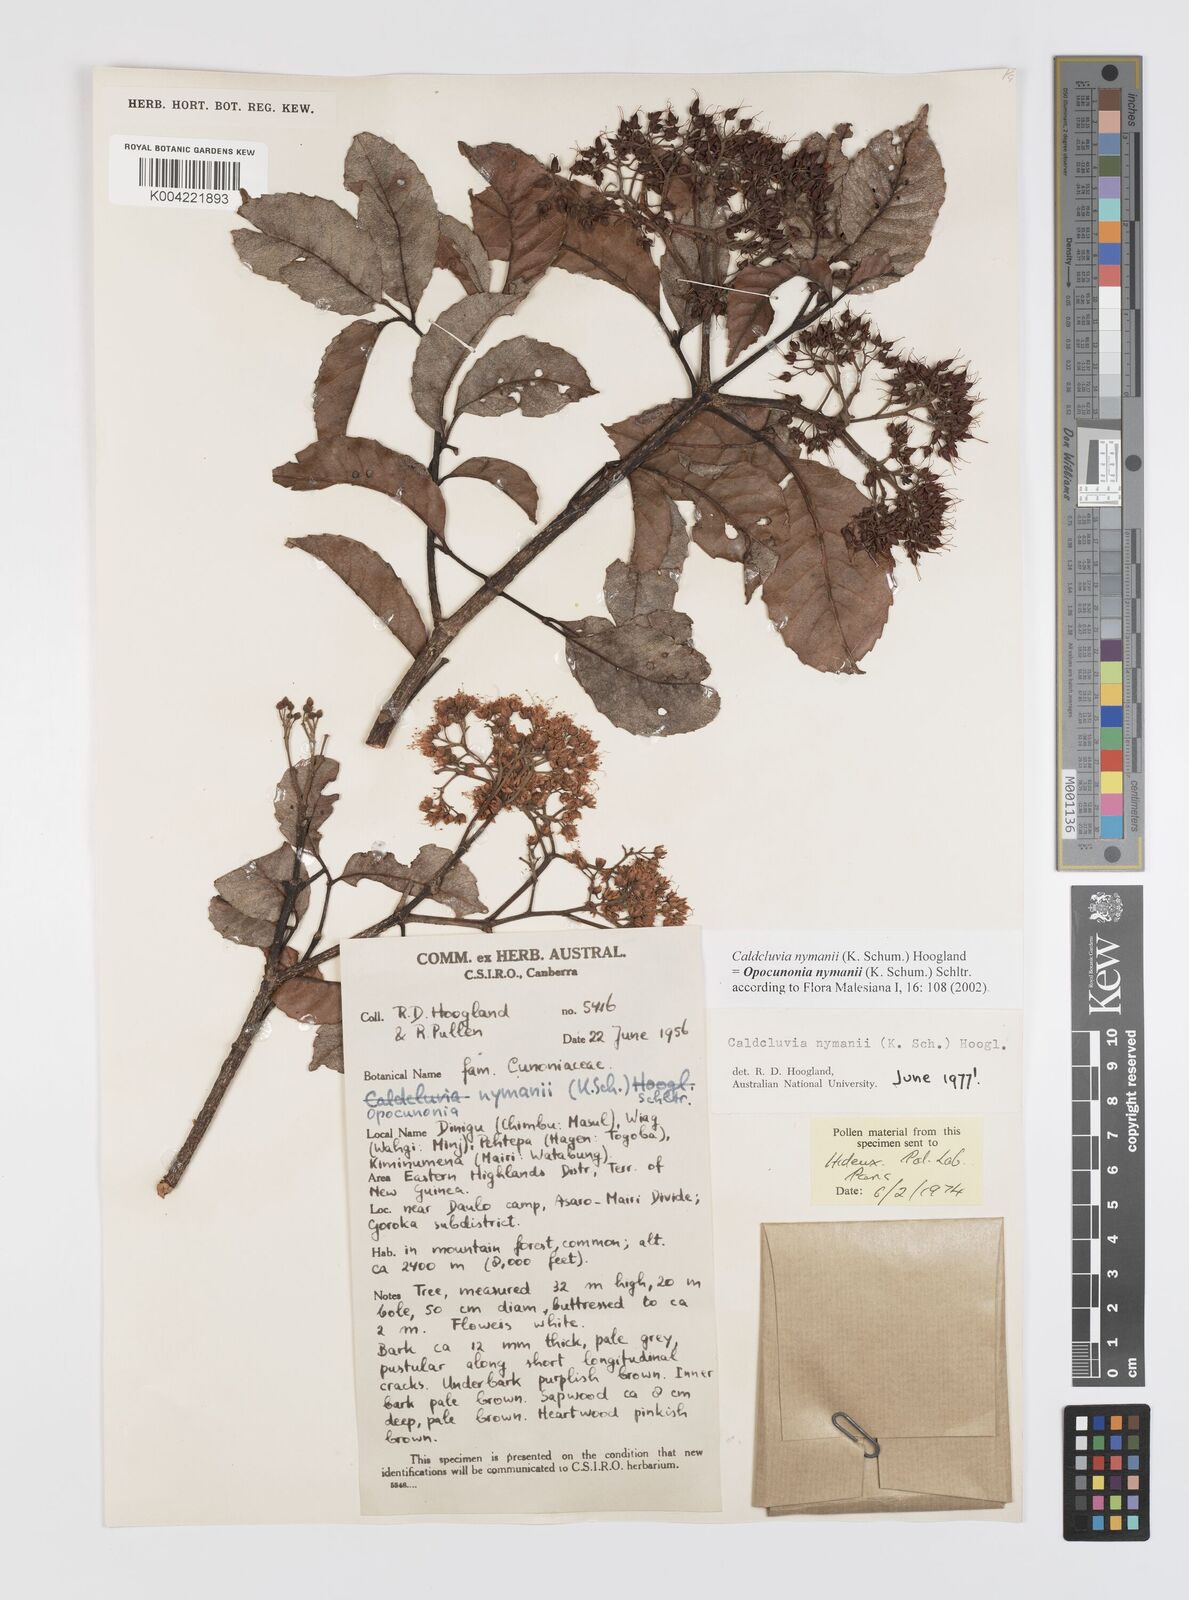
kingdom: Plantae
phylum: Tracheophyta
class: Magnoliopsida
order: Oxalidales
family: Cunoniaceae
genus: Opocunonia
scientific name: Opocunonia nymanii
